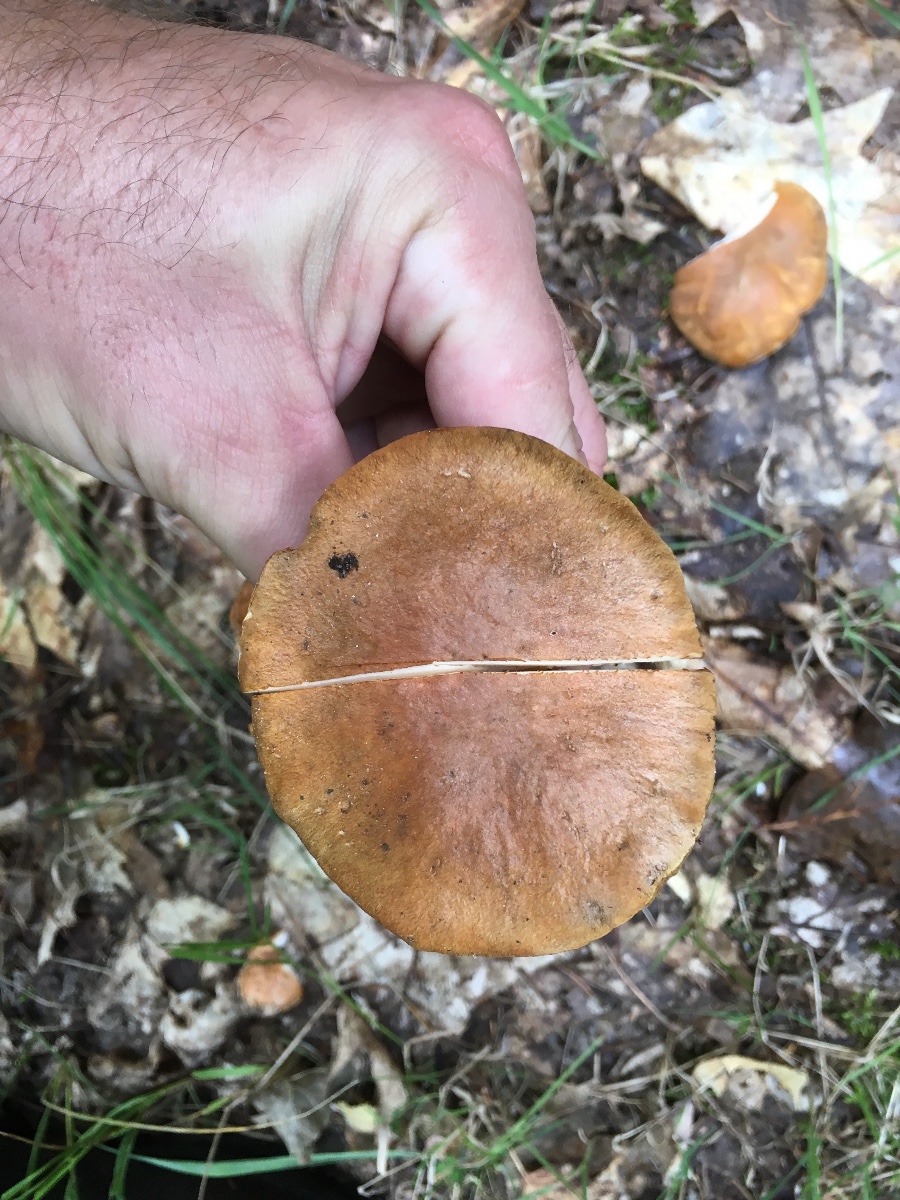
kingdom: Fungi
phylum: Basidiomycota
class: Agaricomycetes
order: Boletales
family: Gyroporaceae
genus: Gyroporus
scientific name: Gyroporus castaneus
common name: kastanie-kammerrørhat
